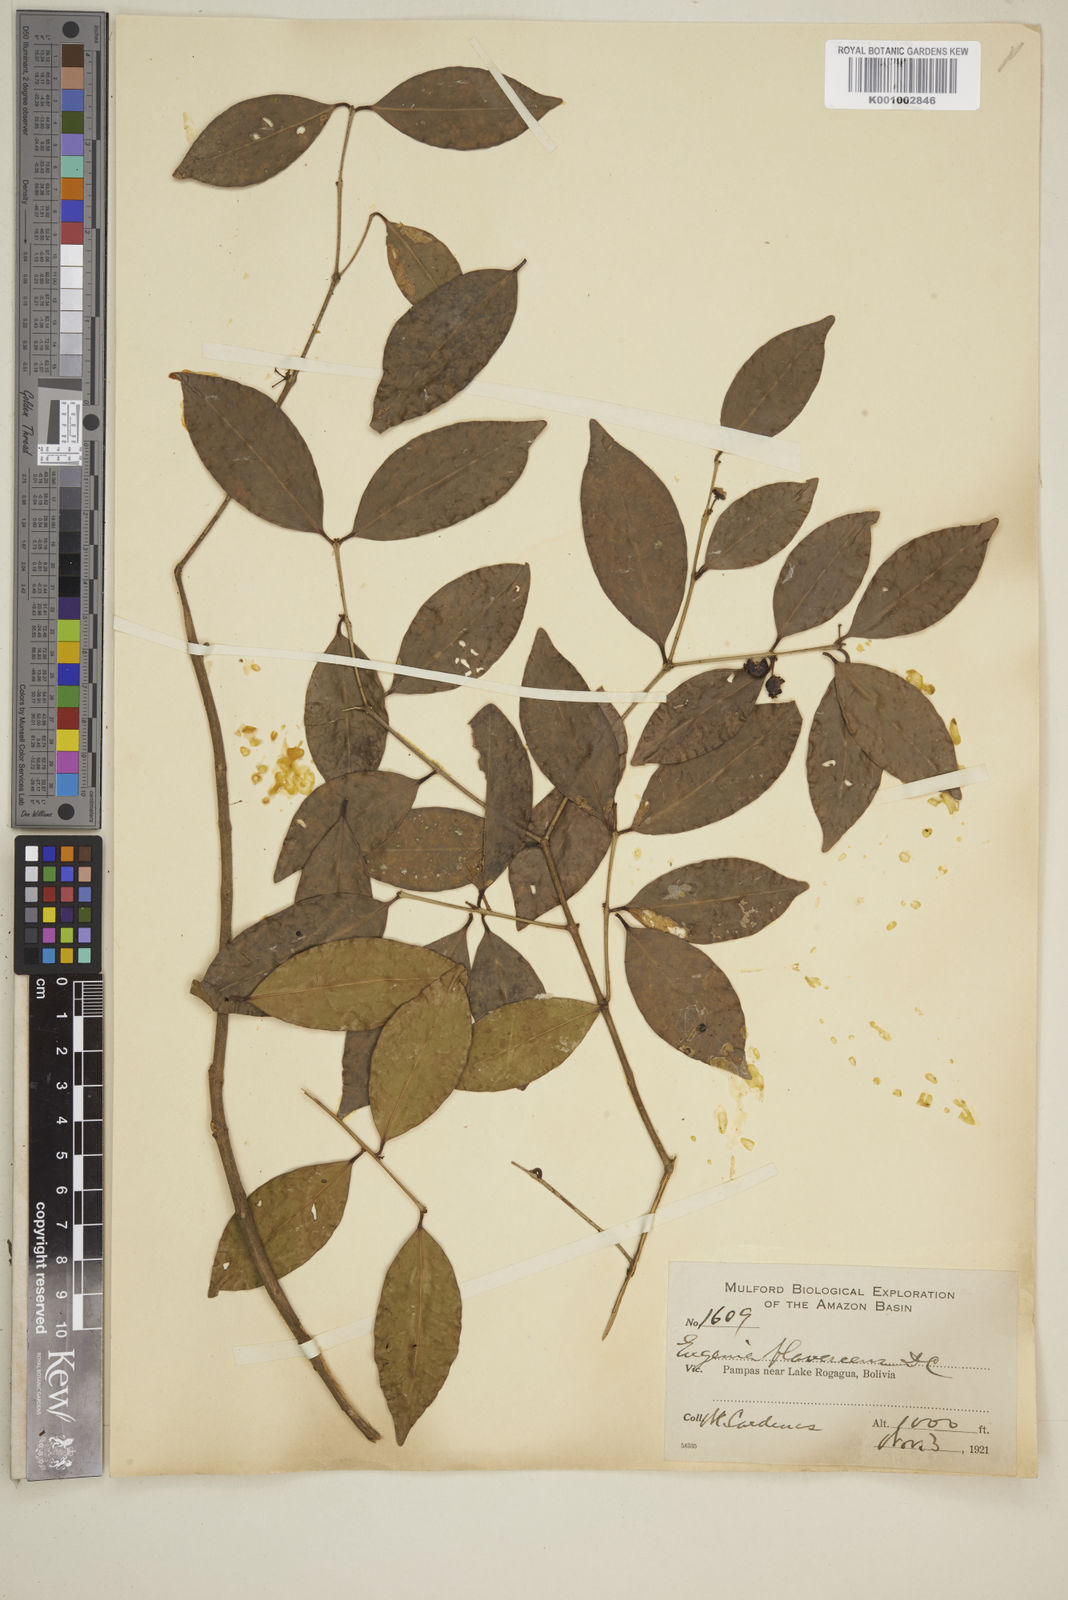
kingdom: Plantae
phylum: Tracheophyta
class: Magnoliopsida
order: Myrtales
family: Myrtaceae
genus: Eugenia
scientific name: Eugenia flavescens
